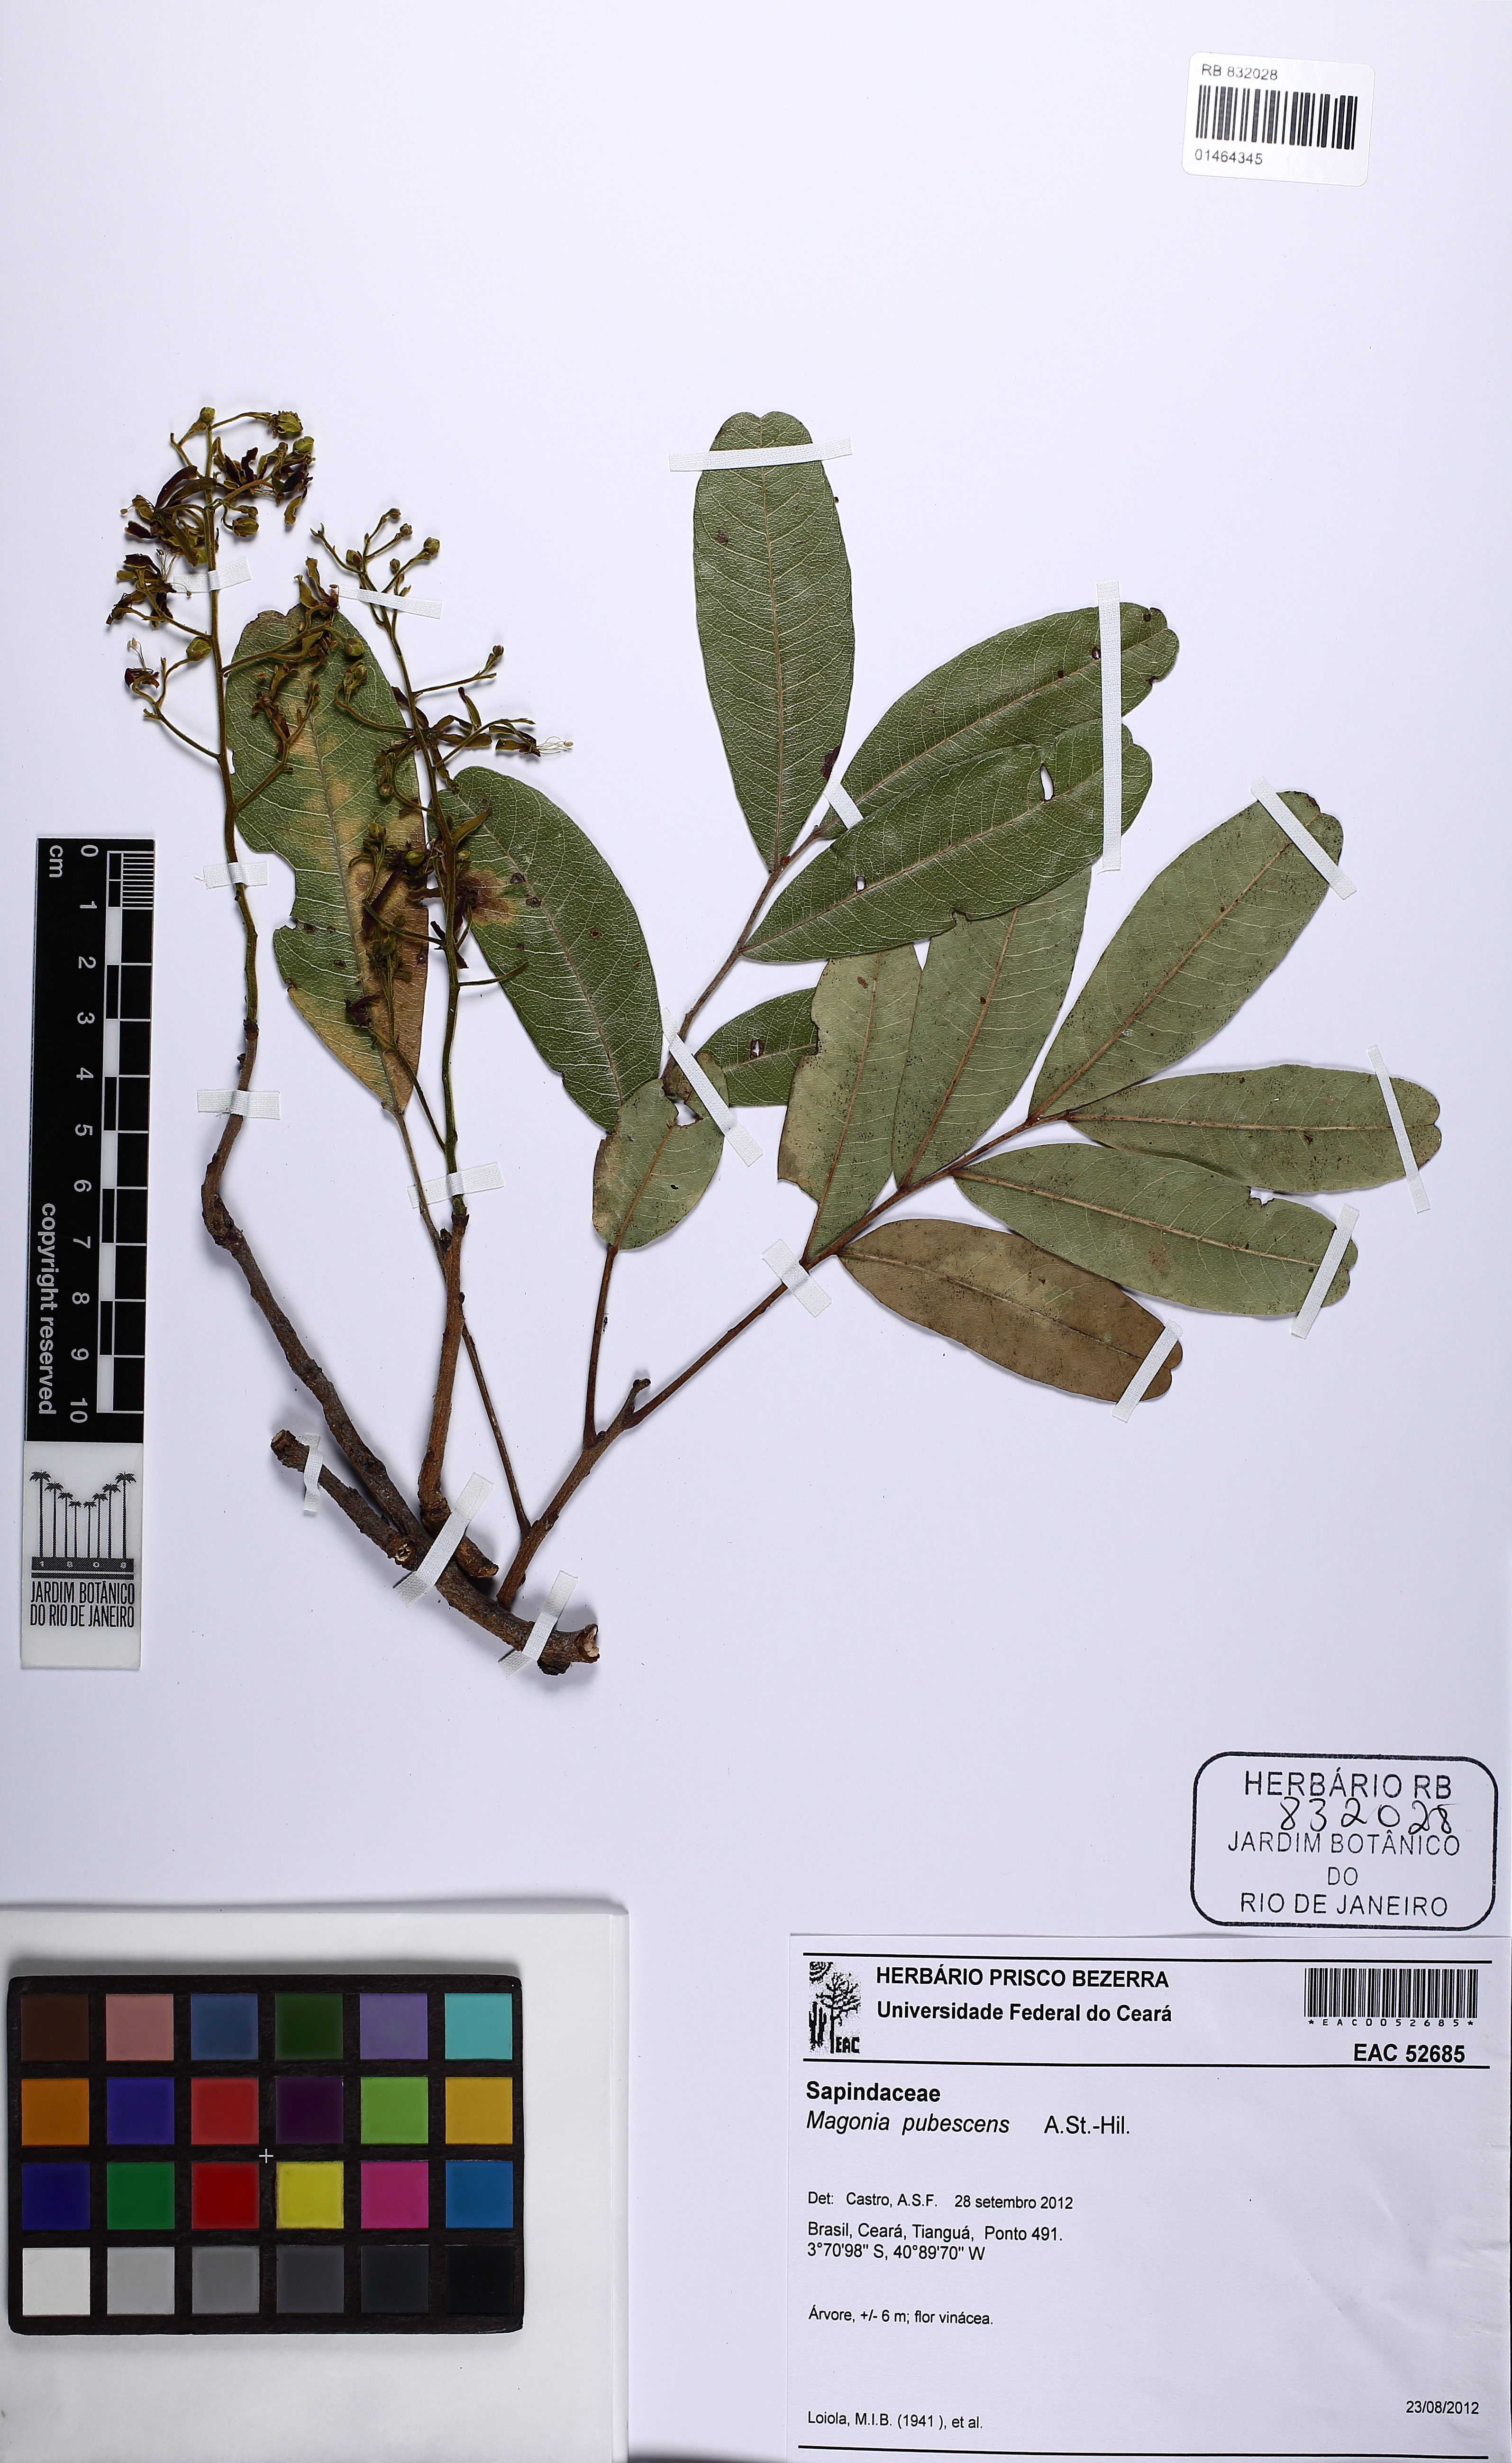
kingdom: Plantae
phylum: Tracheophyta
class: Magnoliopsida
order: Sapindales
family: Sapindaceae
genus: Magonia
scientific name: Magonia pubescens
